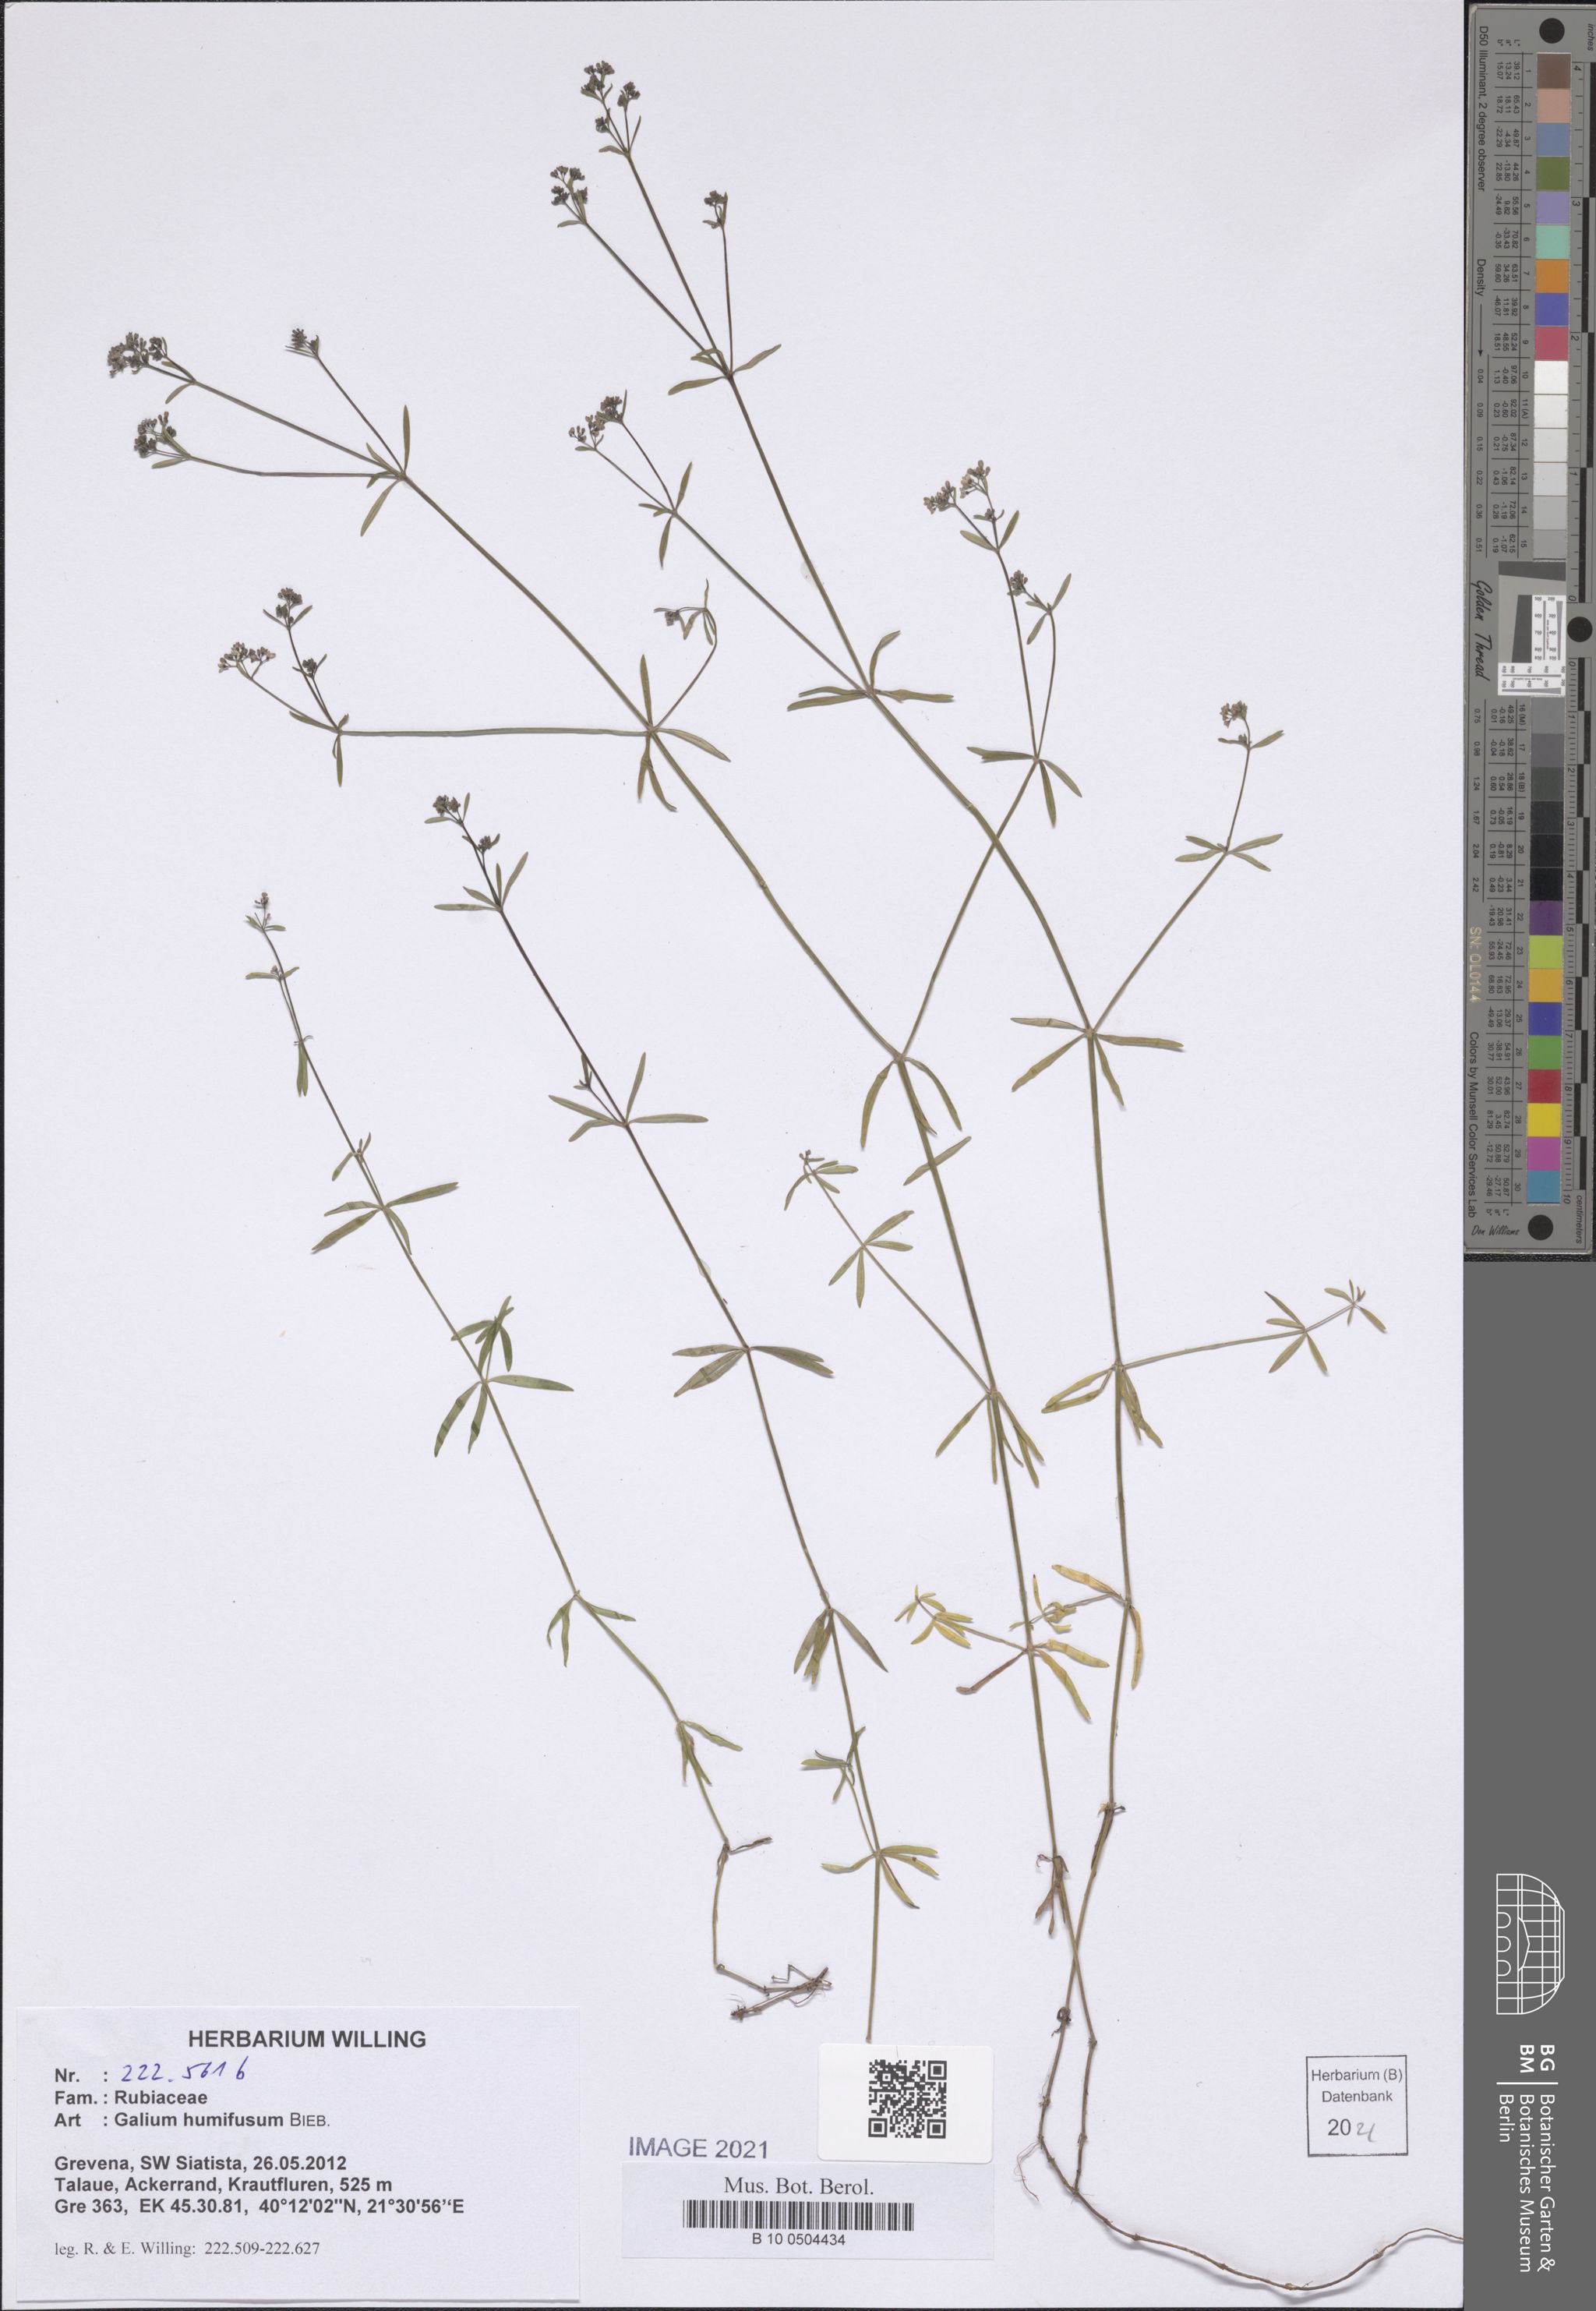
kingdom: Plantae
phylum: Tracheophyta
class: Magnoliopsida
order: Gentianales
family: Rubiaceae
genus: Galium
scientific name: Galium humifusum
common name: Spreading bedstraw
